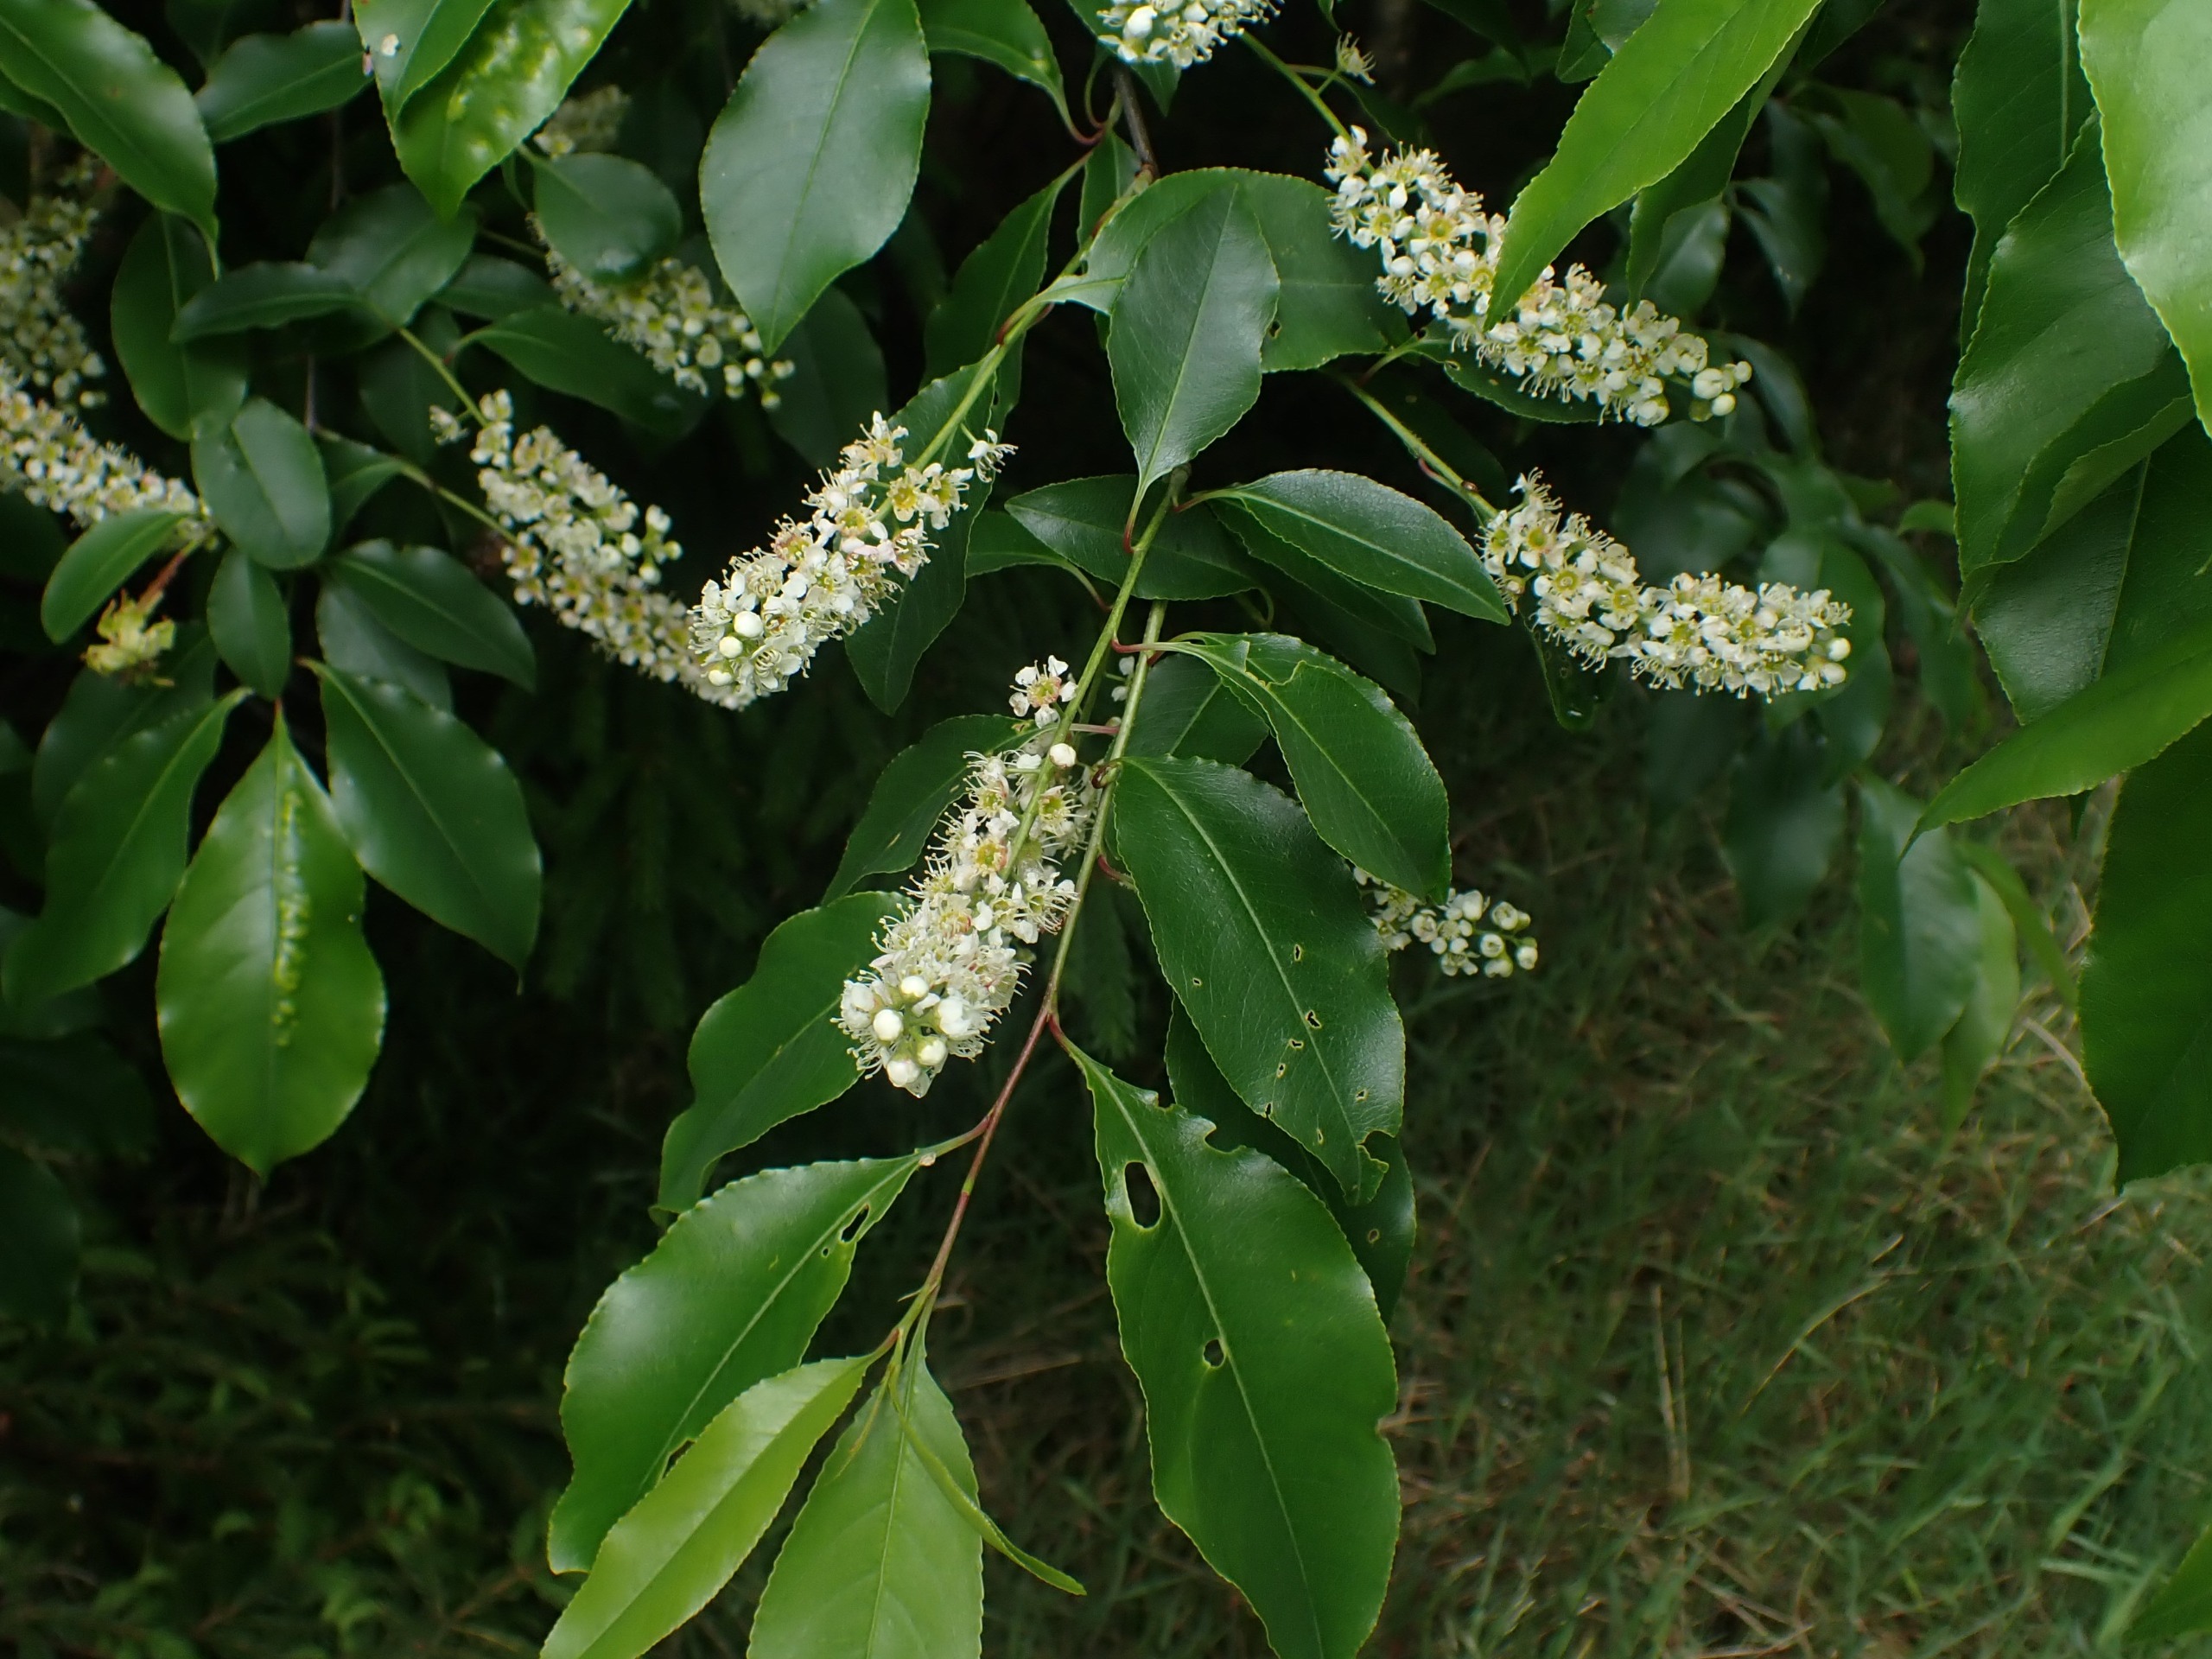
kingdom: Plantae
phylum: Tracheophyta
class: Magnoliopsida
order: Rosales
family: Rosaceae
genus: Prunus
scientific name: Prunus serotina
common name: Glansbladet hæg
